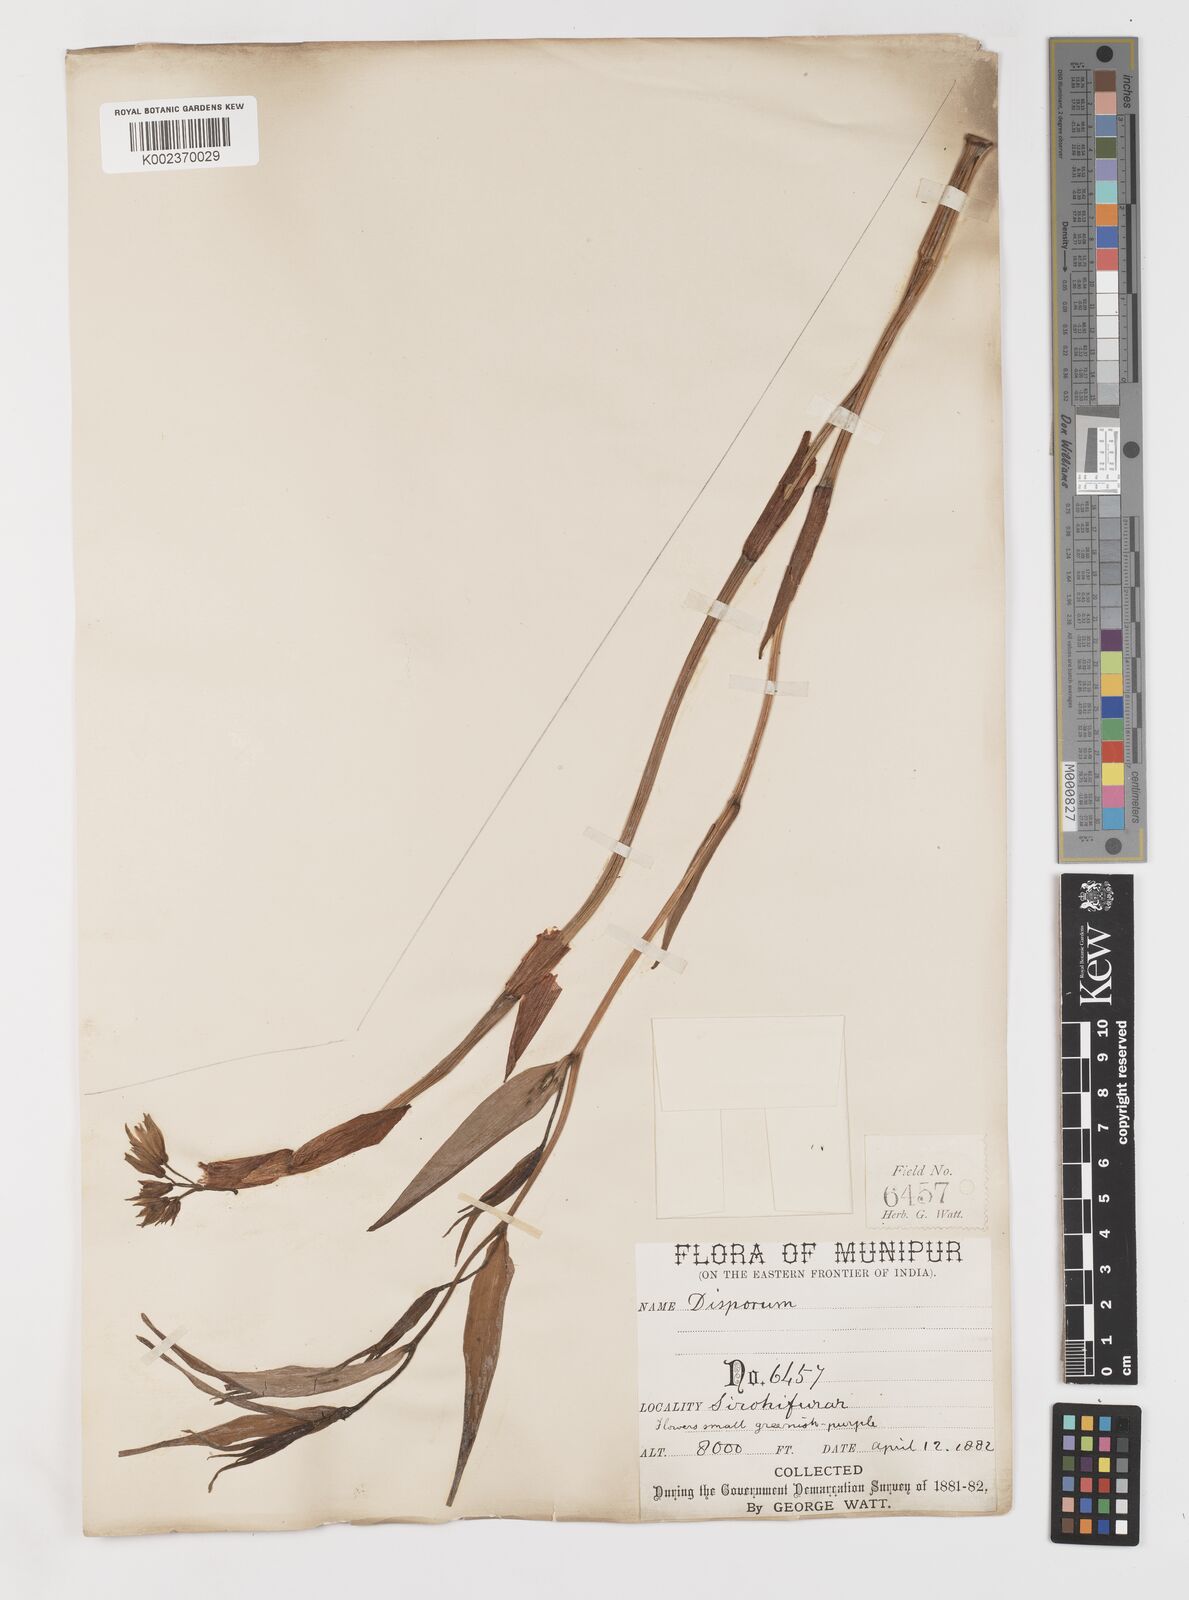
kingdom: Plantae
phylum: Tracheophyta
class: Liliopsida
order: Liliales
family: Colchicaceae
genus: Disporum
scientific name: Disporum cantoniense
